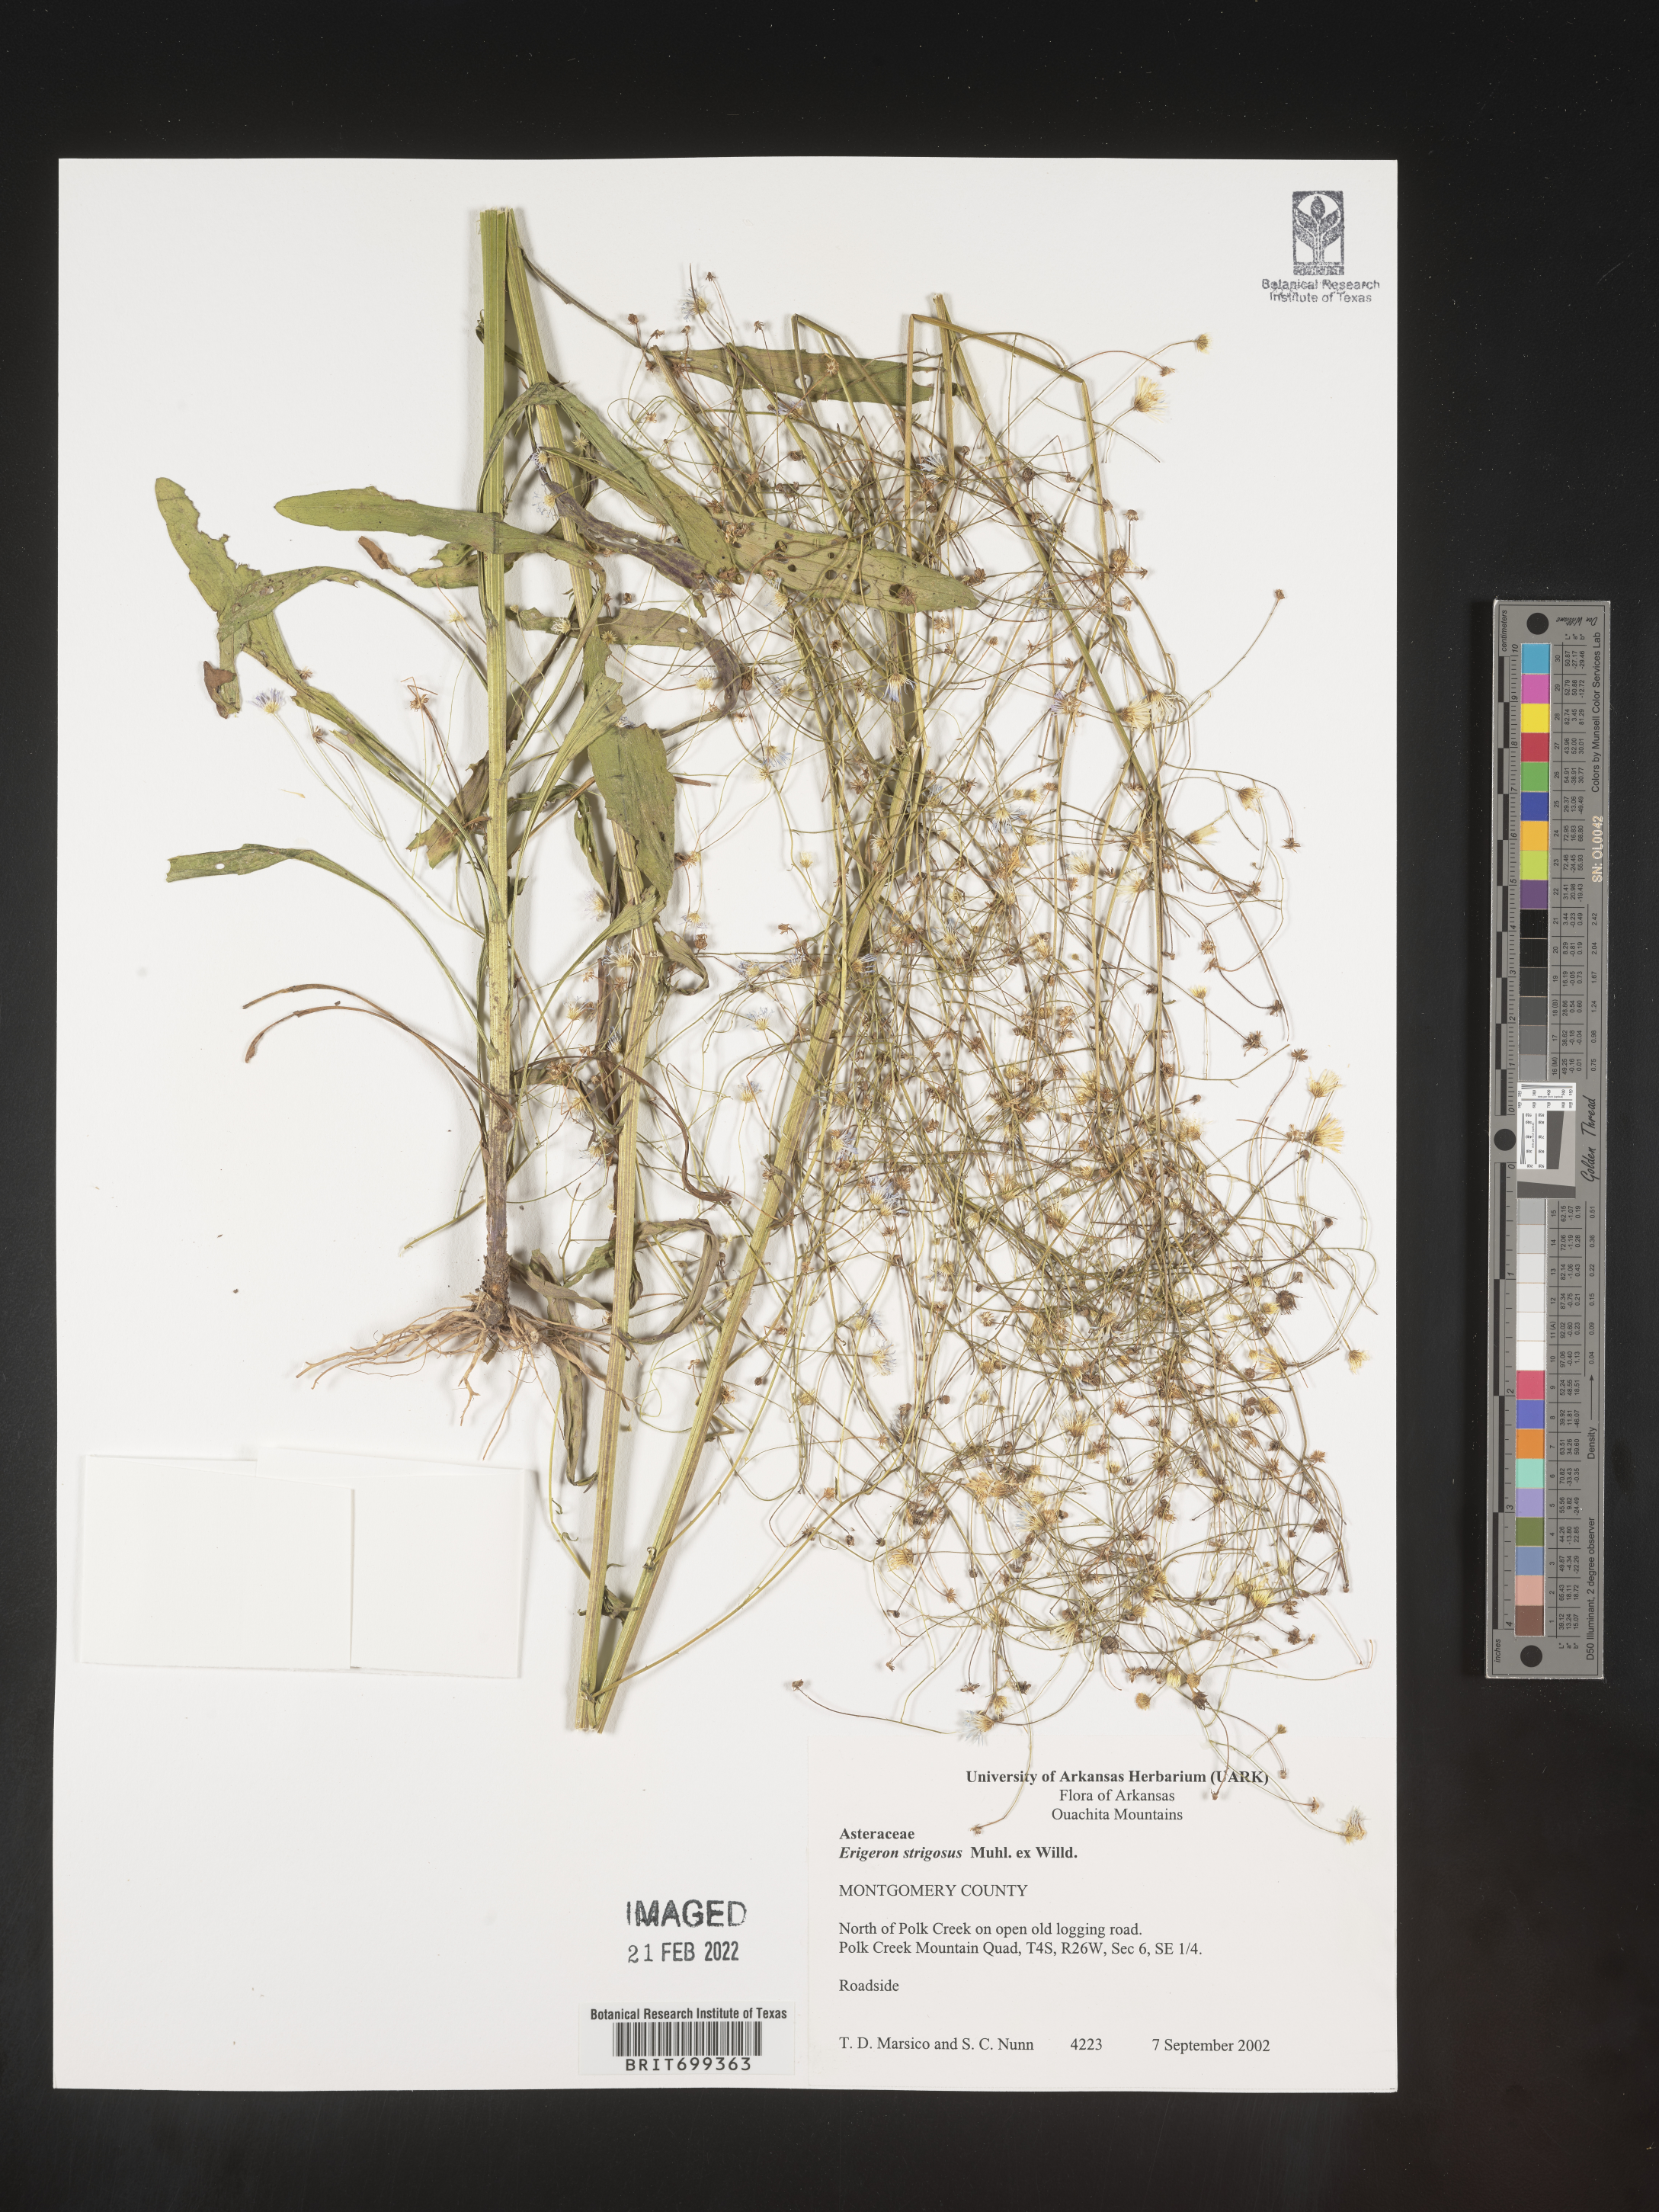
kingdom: Plantae
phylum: Tracheophyta
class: Magnoliopsida
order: Asterales
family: Asteraceae
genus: Erigeron
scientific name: Erigeron strigosus
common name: Common eastern fleabane
